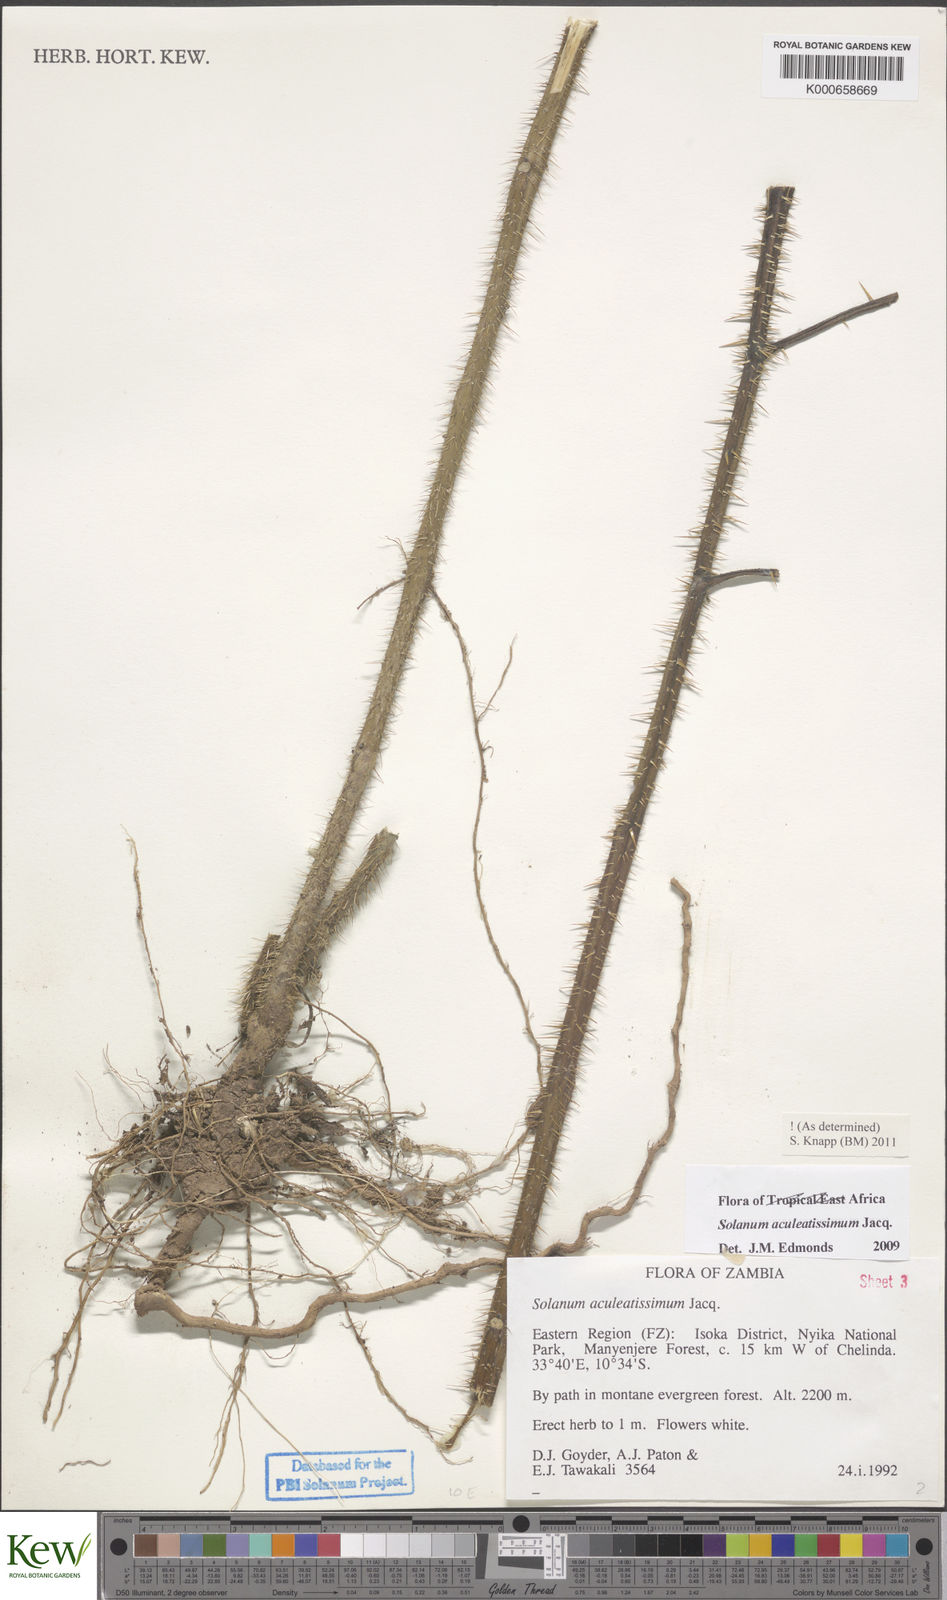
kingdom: Plantae
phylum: Tracheophyta
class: Magnoliopsida
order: Solanales
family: Solanaceae
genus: Solanum
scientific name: Solanum aculeatissimum
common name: Dutch eggplant
